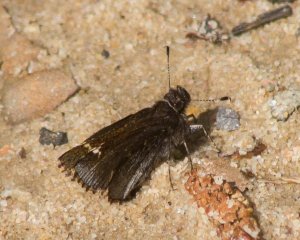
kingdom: Animalia
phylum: Arthropoda
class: Insecta
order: Lepidoptera
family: Hesperiidae
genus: Mastor
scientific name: Mastor vialis
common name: Common Roadside-Skipper
